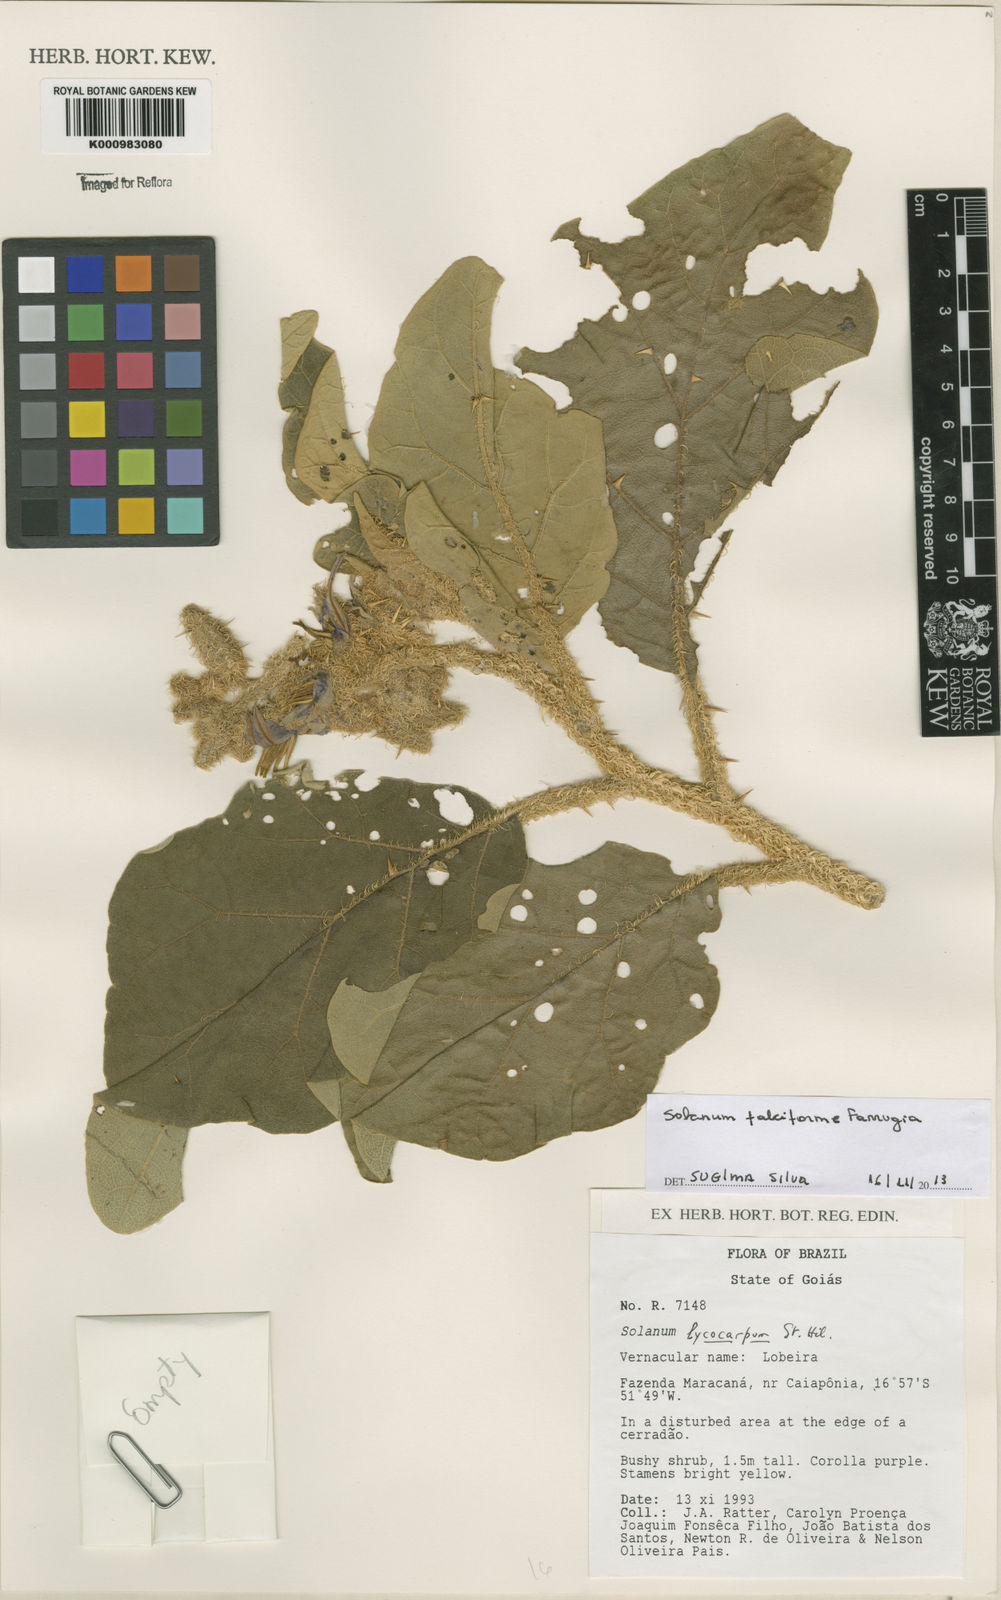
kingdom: Plantae
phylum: Tracheophyta
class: Magnoliopsida
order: Solanales
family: Solanaceae
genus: Solanum
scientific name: Solanum
